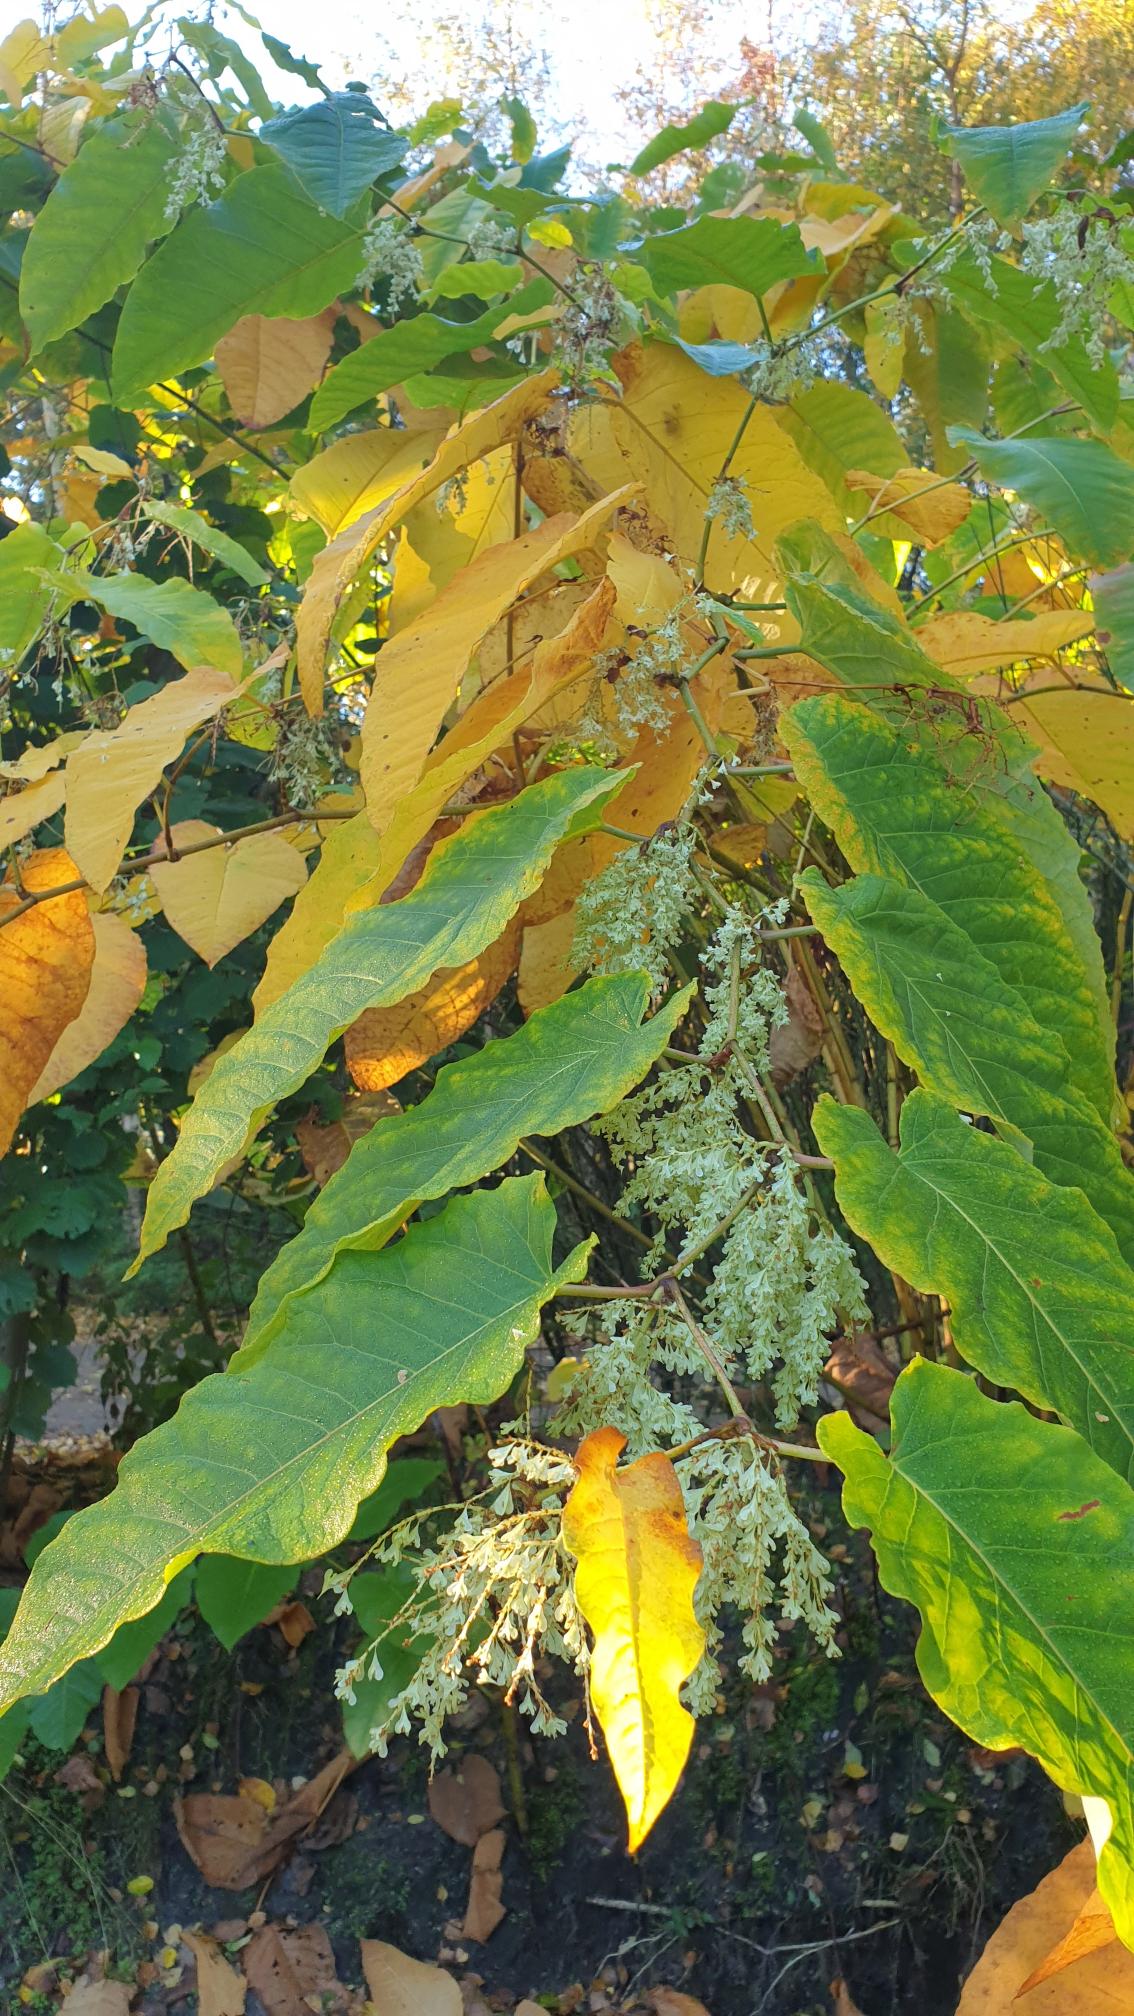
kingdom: Plantae
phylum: Tracheophyta
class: Magnoliopsida
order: Caryophyllales
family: Polygonaceae
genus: Reynoutria
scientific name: Reynoutria sachalinensis
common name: Kæmpe-pileurt
